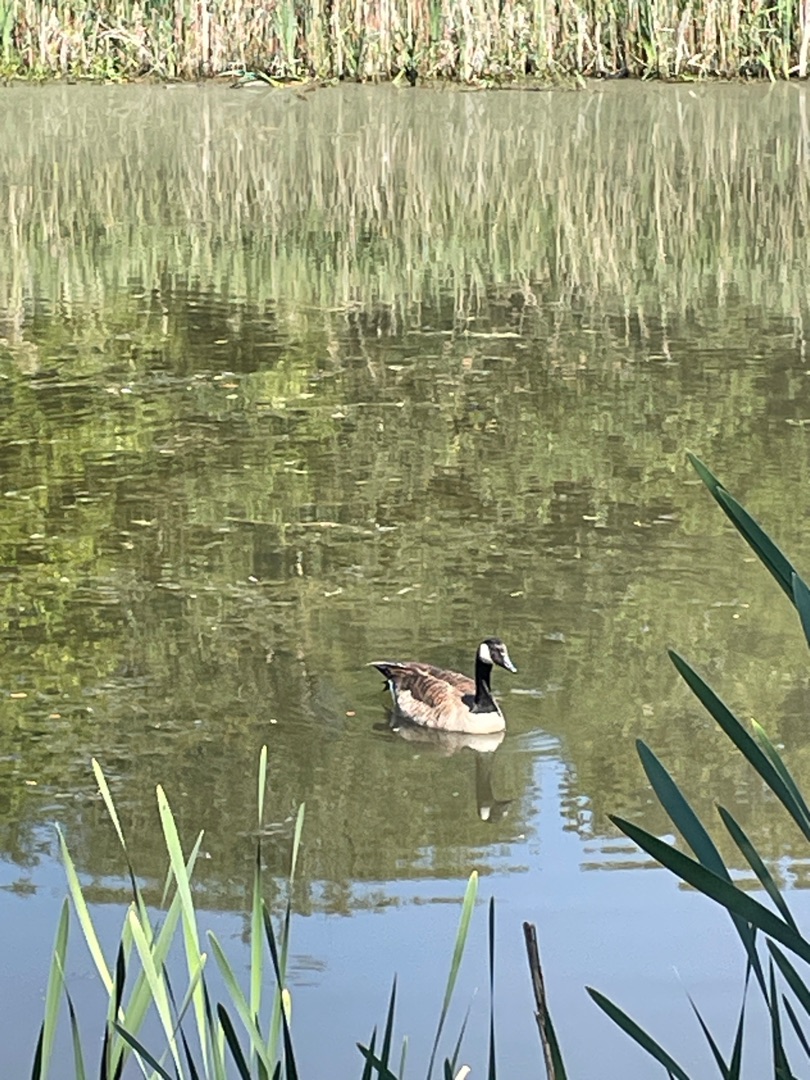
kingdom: Animalia
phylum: Chordata
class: Aves
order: Anseriformes
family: Anatidae
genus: Branta
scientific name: Branta canadensis
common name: Canadagås
